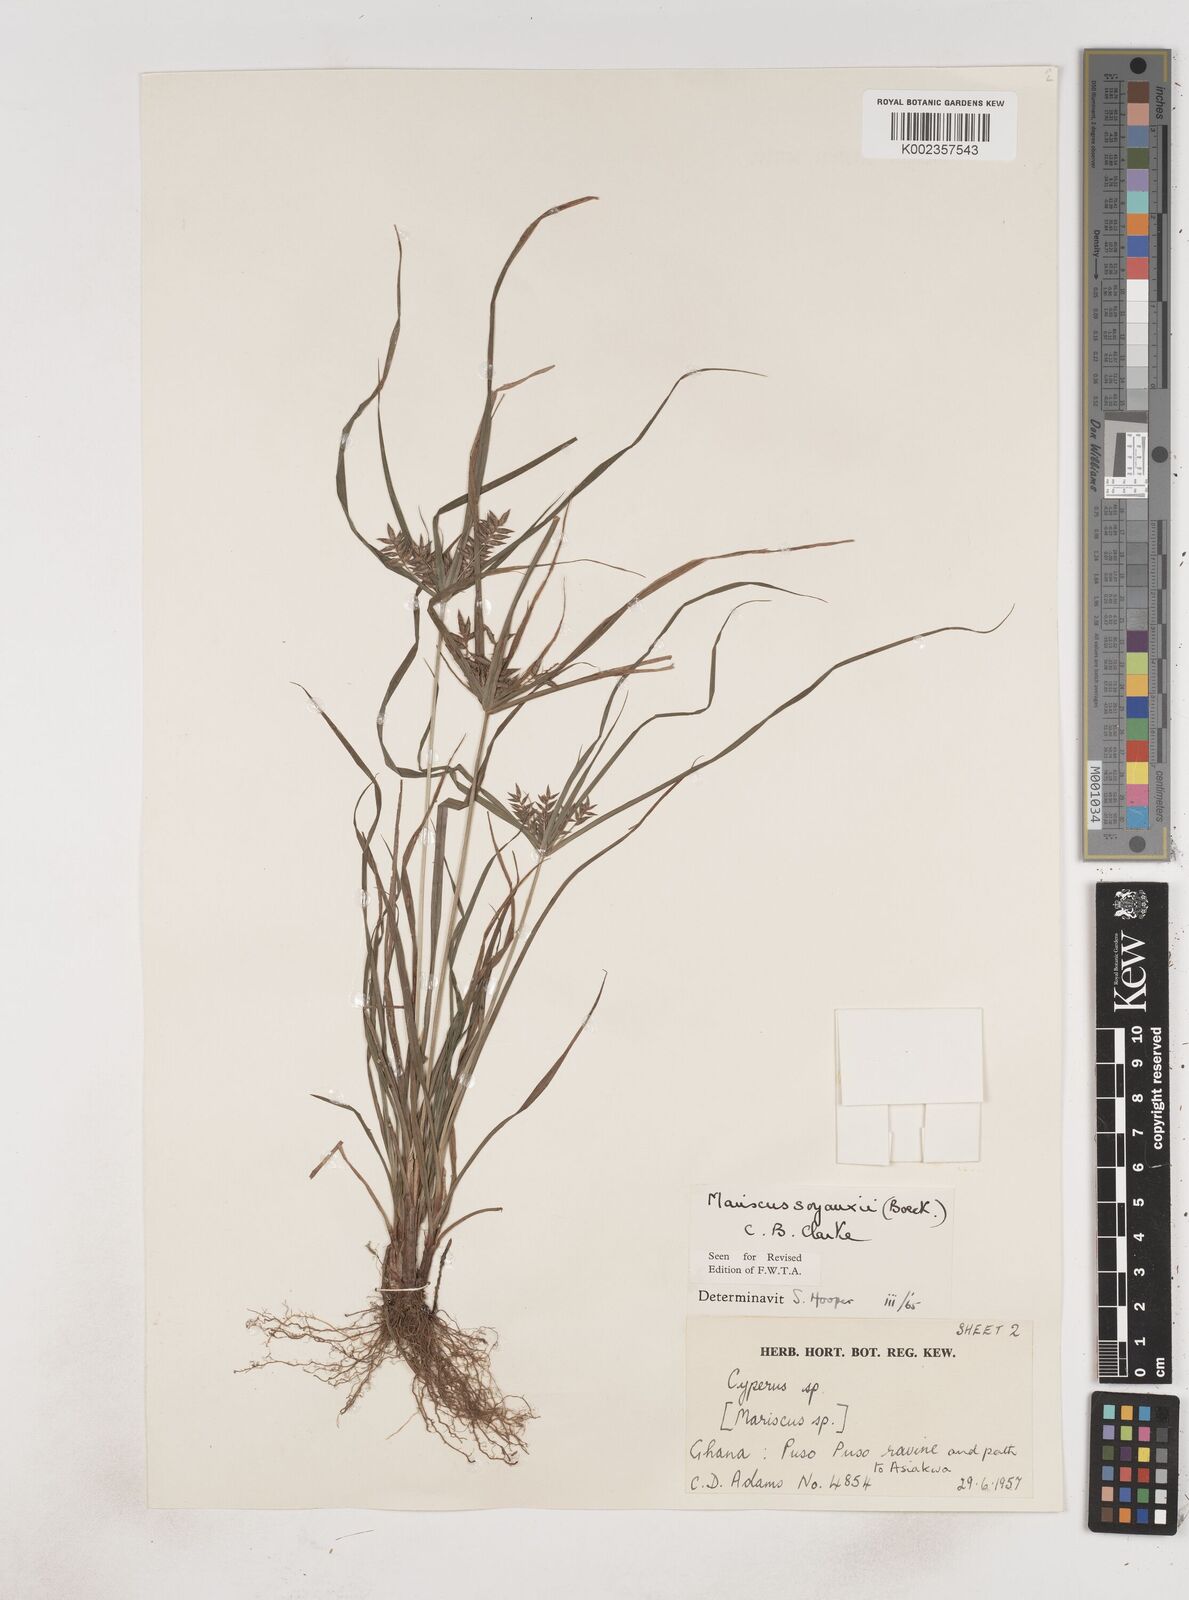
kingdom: Plantae
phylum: Tracheophyta
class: Liliopsida
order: Poales
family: Cyperaceae
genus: Cyperus
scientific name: Cyperus soyauxii
